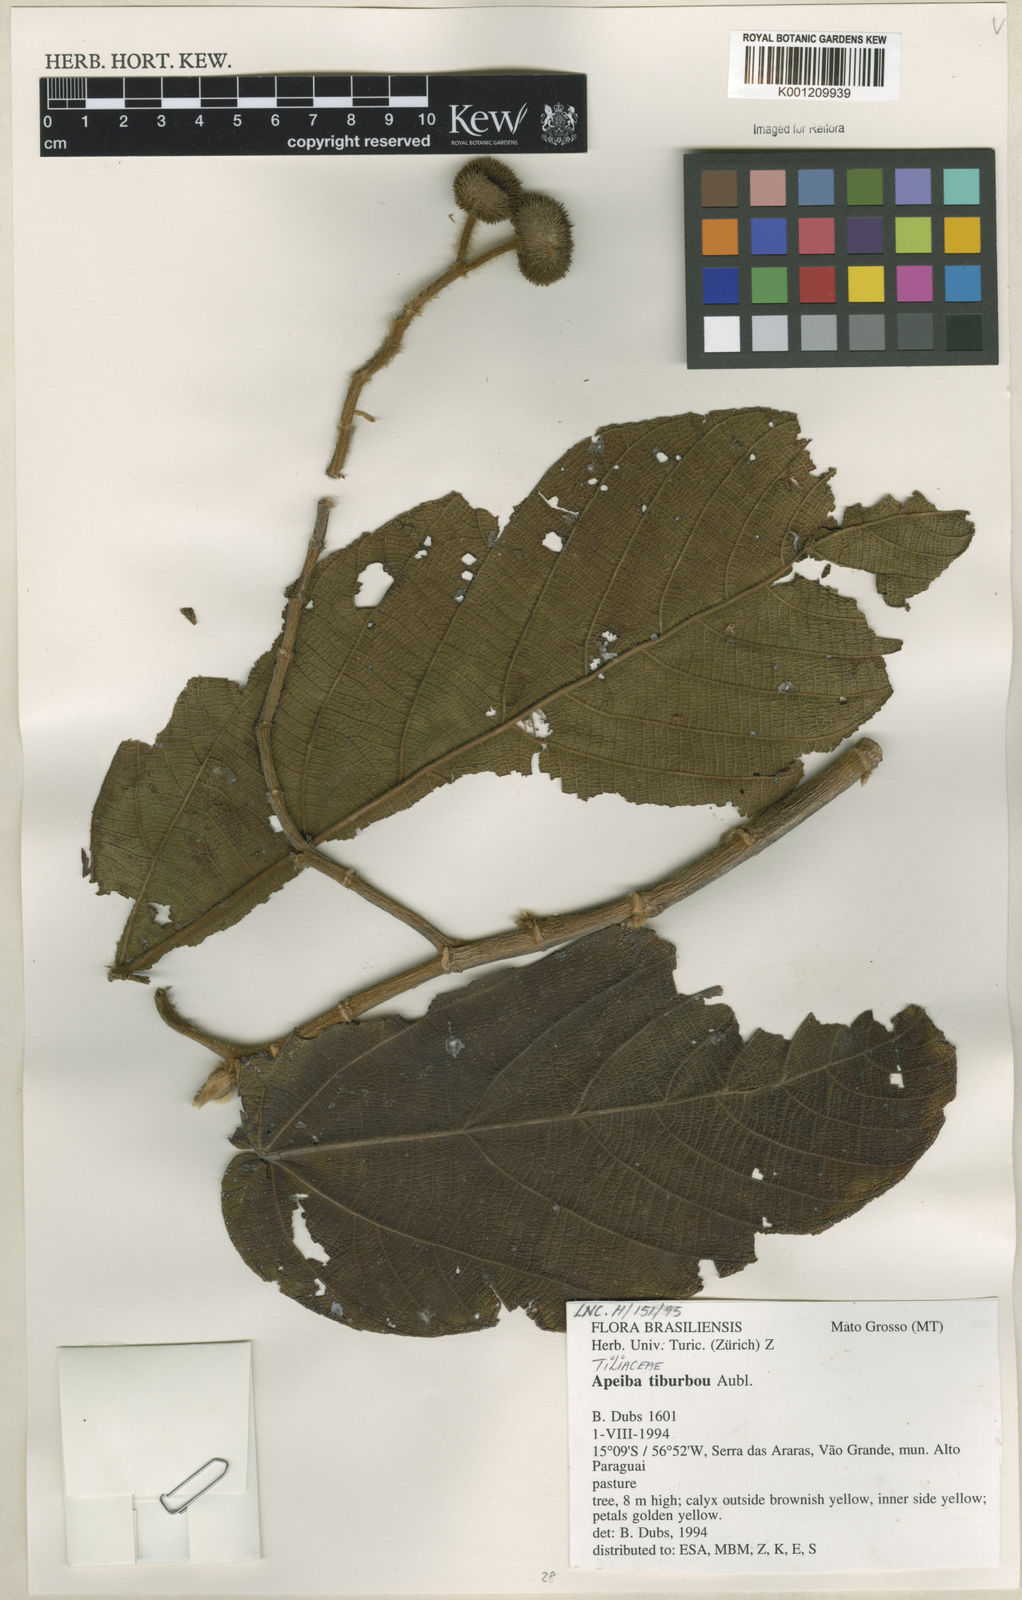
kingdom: Plantae
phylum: Tracheophyta
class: Magnoliopsida
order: Malvales
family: Malvaceae
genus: Apeiba
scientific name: Apeiba tibourbou
